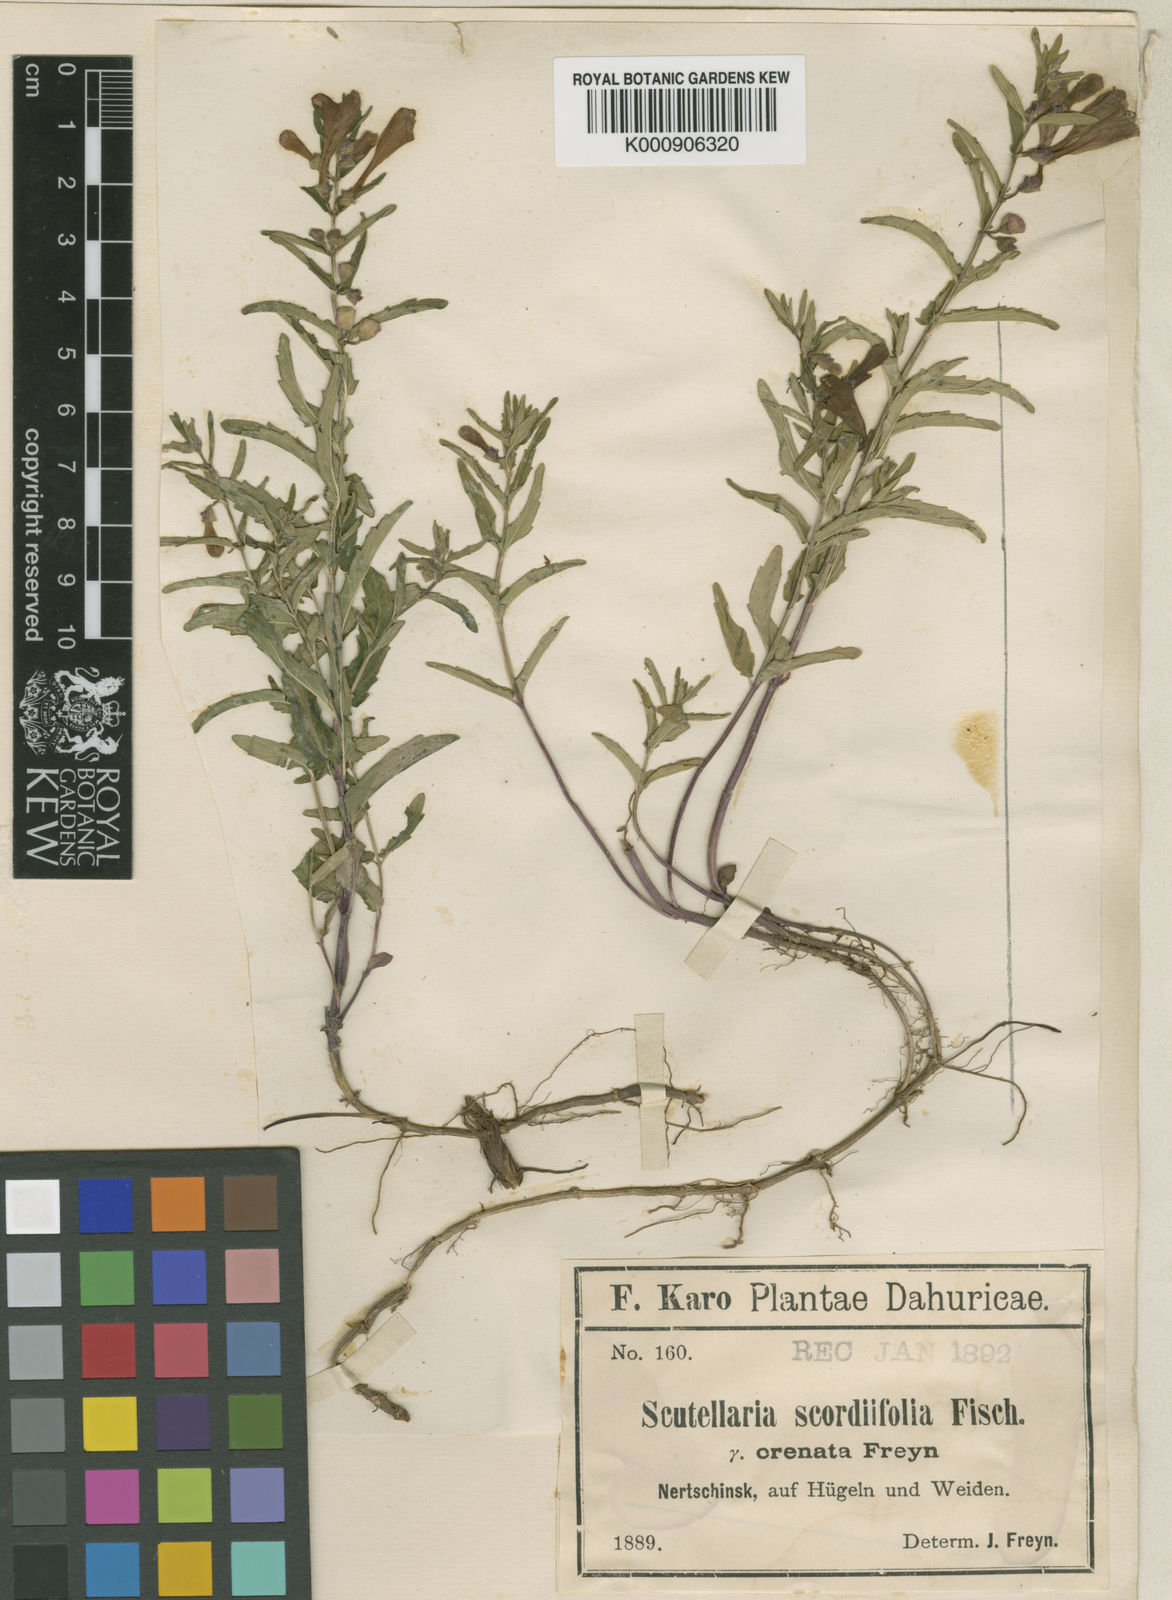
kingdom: Plantae
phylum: Tracheophyta
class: Magnoliopsida
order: Lamiales
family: Lamiaceae
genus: Scutellaria
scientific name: Scutellaria scordiifolia
